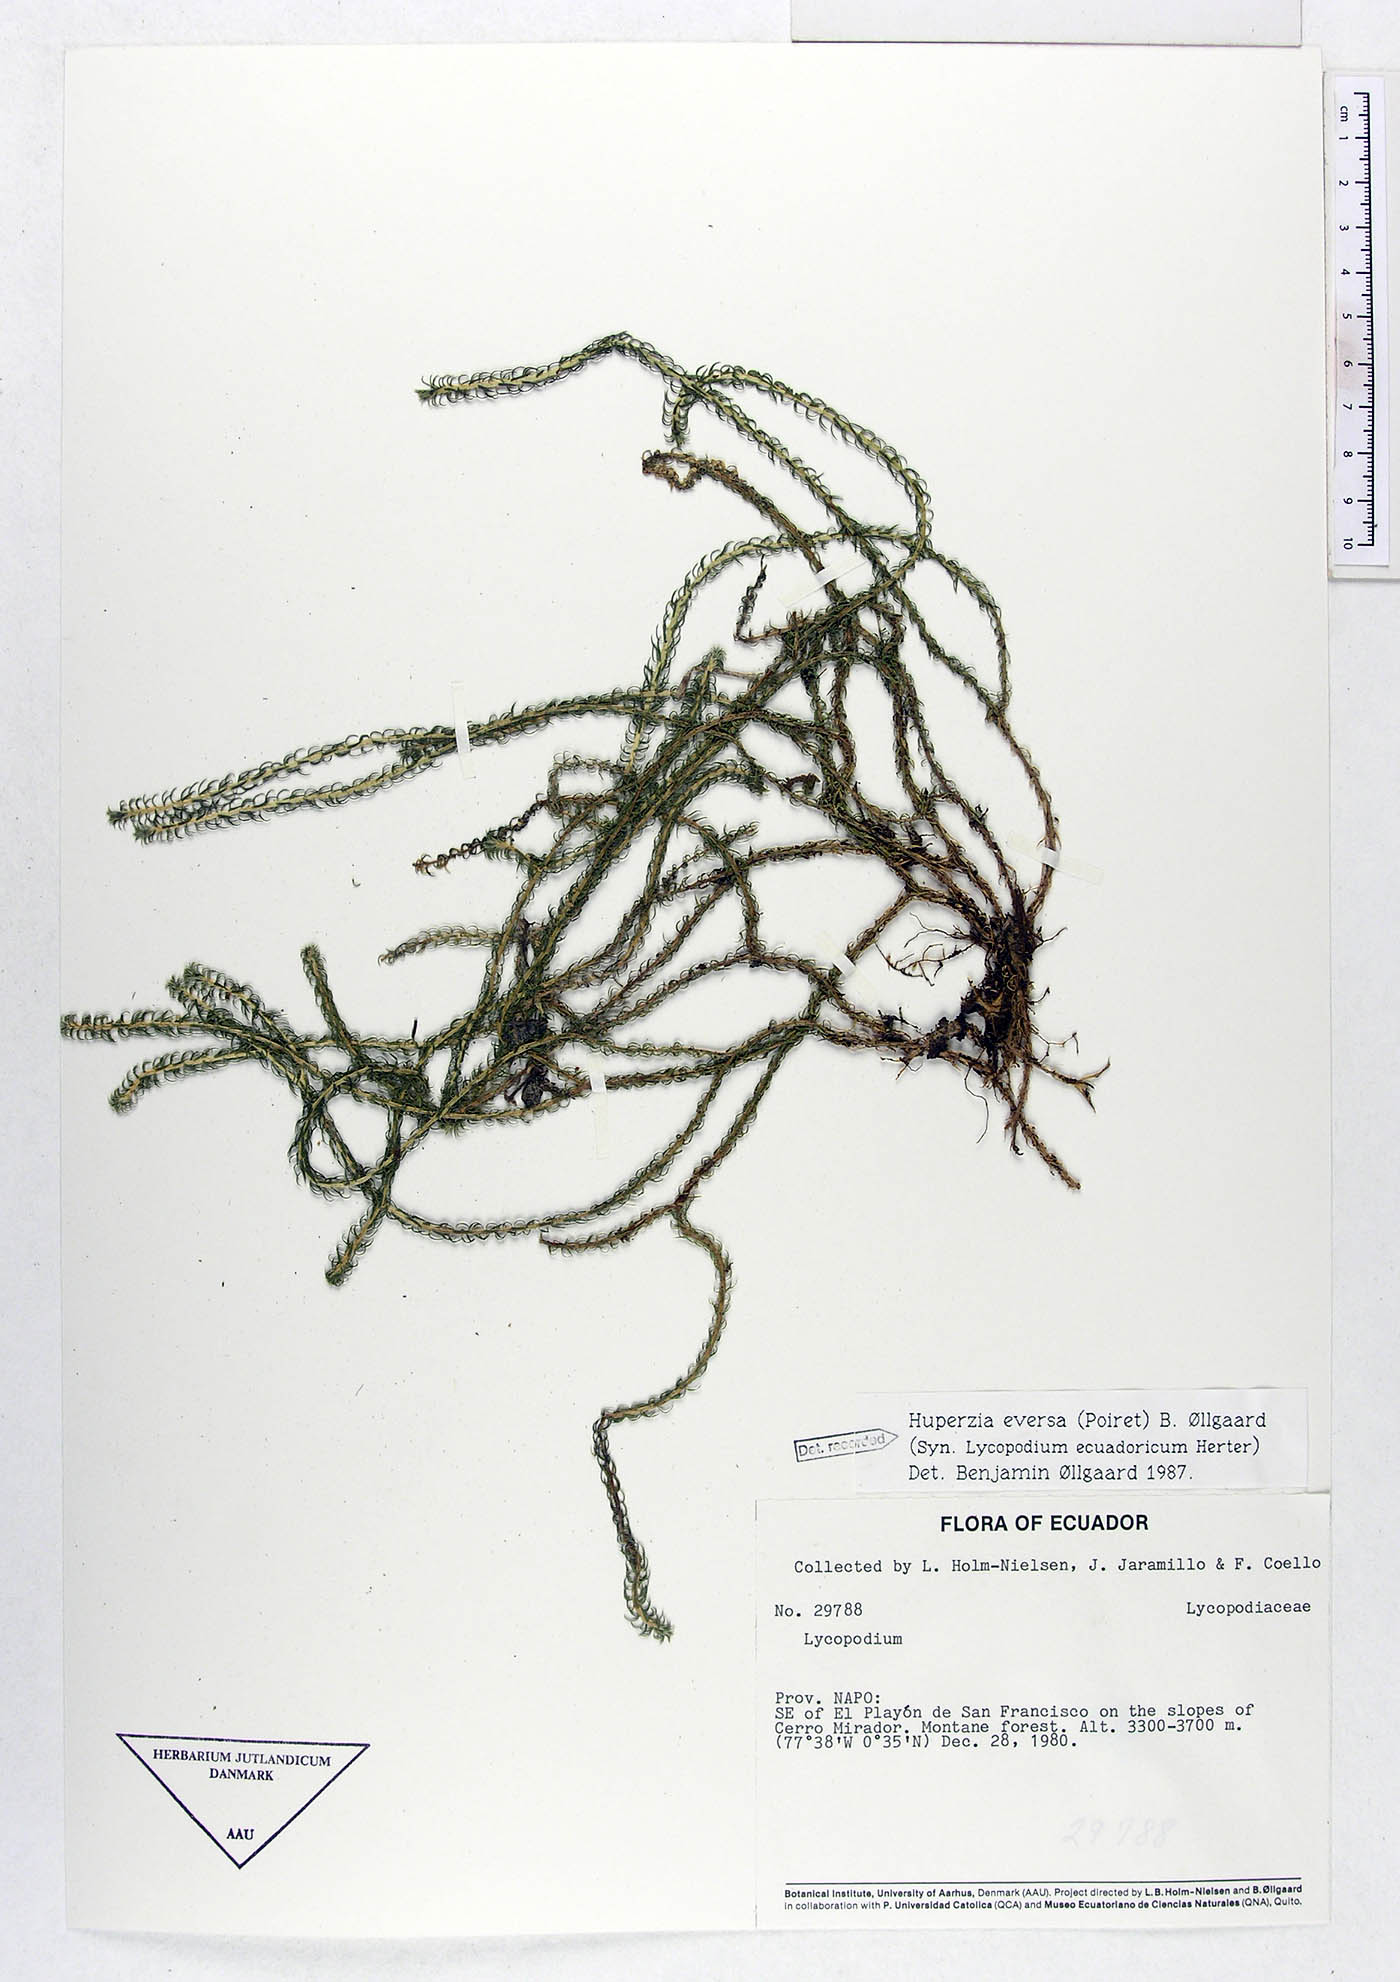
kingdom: Plantae
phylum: Tracheophyta
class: Lycopodiopsida
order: Lycopodiales
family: Lycopodiaceae
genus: Phlegmariurus
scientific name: Phlegmariurus eversus
